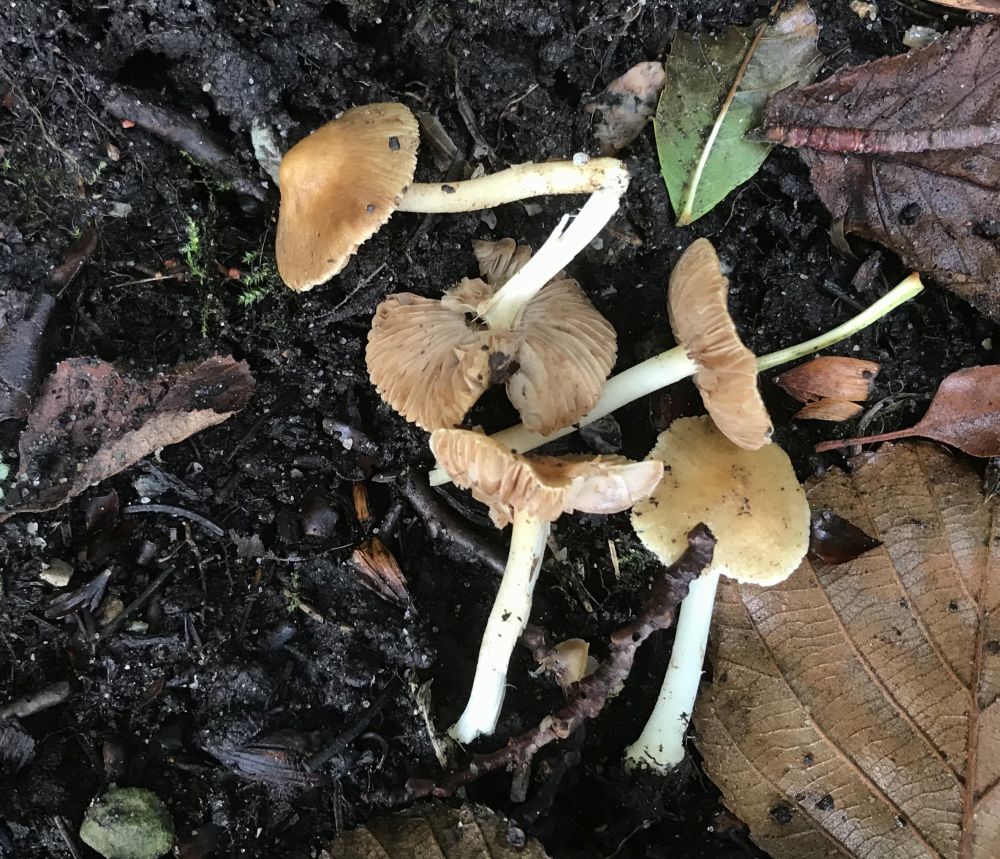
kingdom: Fungi
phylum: Basidiomycota
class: Agaricomycetes
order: Agaricales
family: Inocybaceae
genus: Inocybe
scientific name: Inocybe
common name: trævlhat
